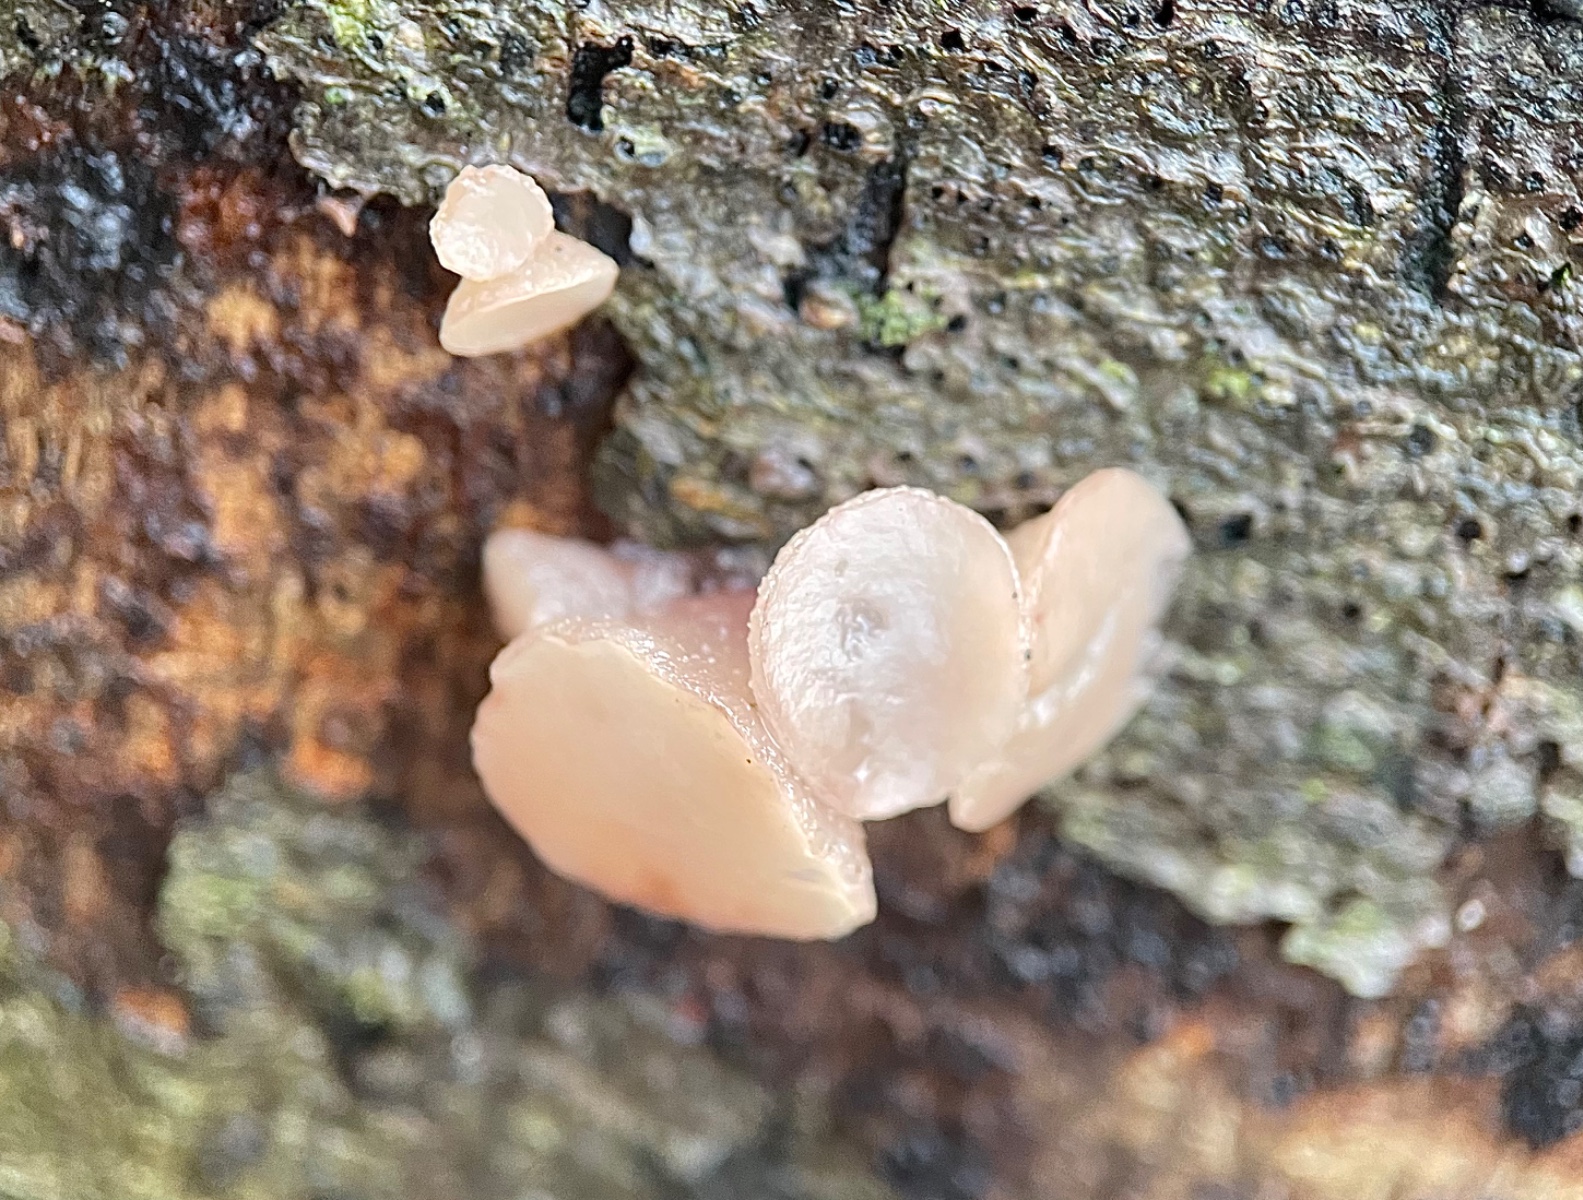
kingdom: Fungi
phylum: Ascomycota
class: Leotiomycetes
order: Helotiales
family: Gelatinodiscaceae
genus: Neobulgaria
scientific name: Neobulgaria pura
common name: bleg bævreskive
